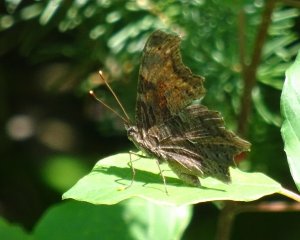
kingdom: Animalia
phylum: Arthropoda
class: Insecta
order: Lepidoptera
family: Nymphalidae
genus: Polygonia
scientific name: Polygonia progne
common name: Gray Comma
